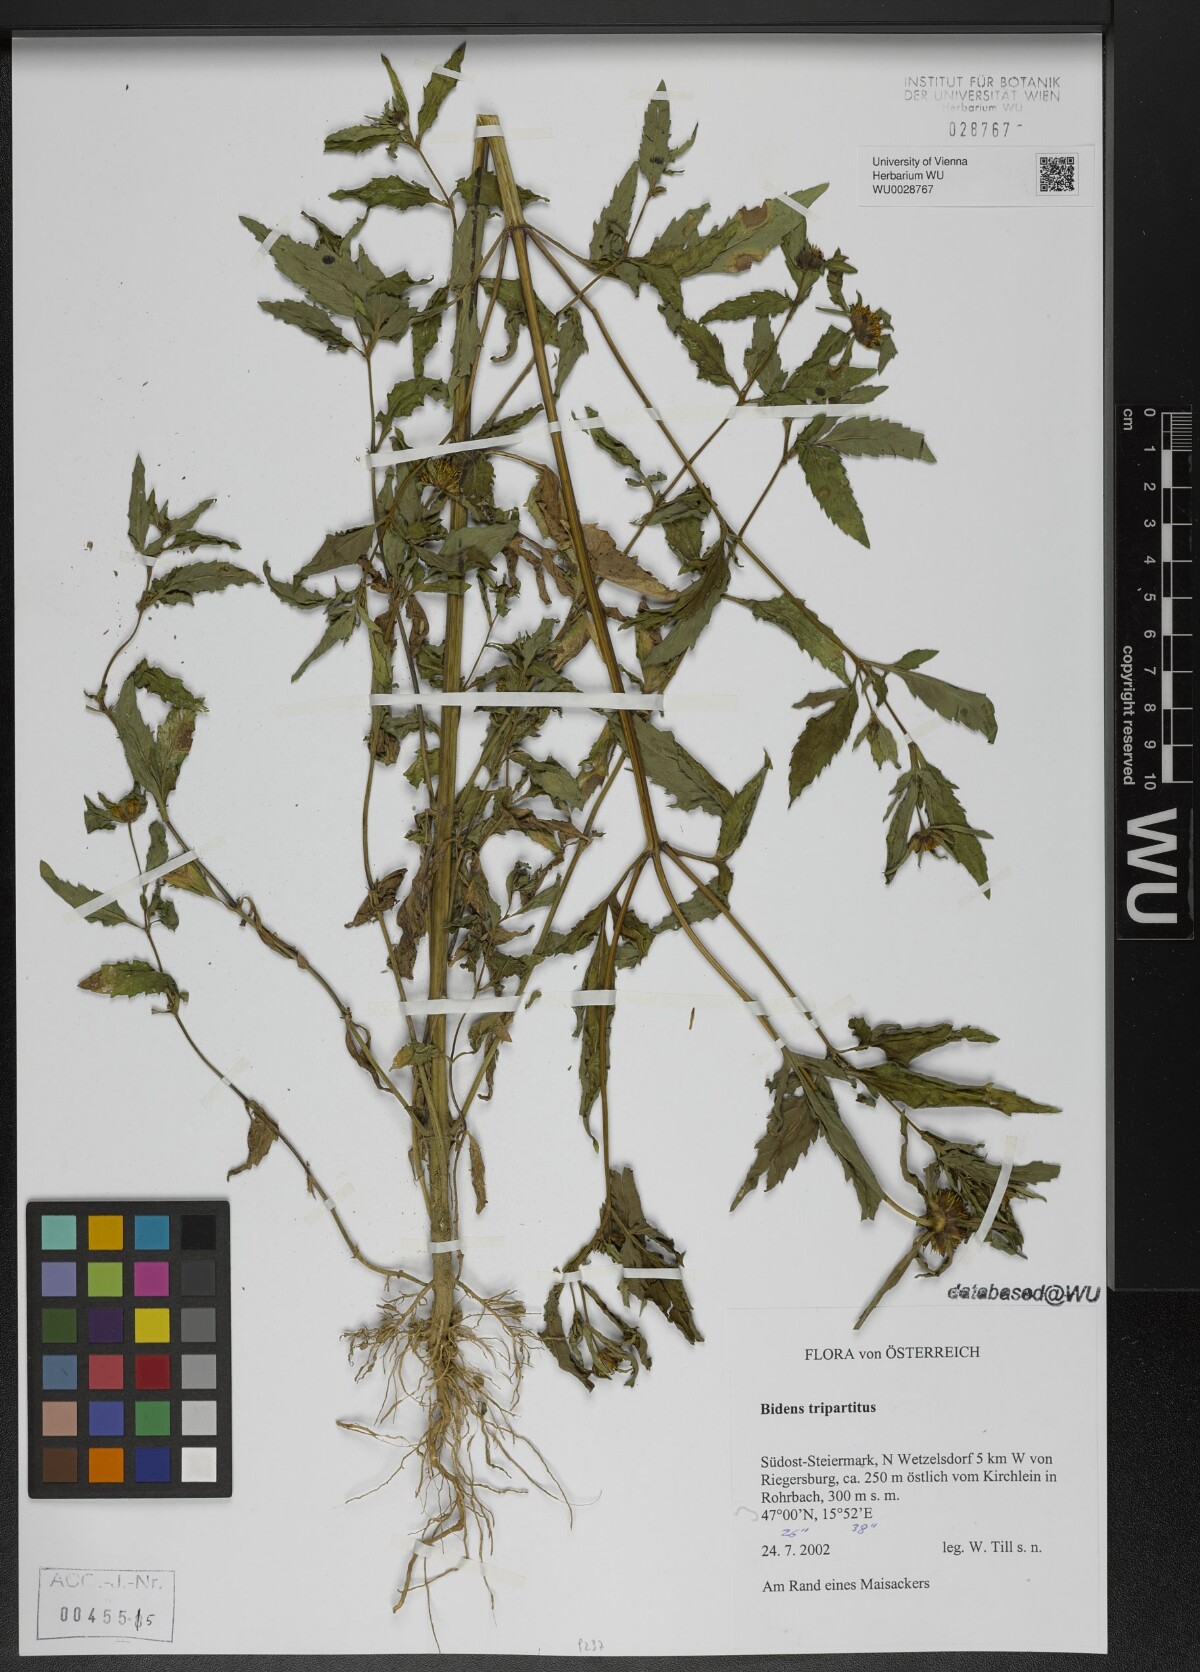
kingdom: Plantae
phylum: Tracheophyta
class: Magnoliopsida
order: Asterales
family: Asteraceae
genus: Bidens
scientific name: Bidens tripartita
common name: Trifid bur-marigold
